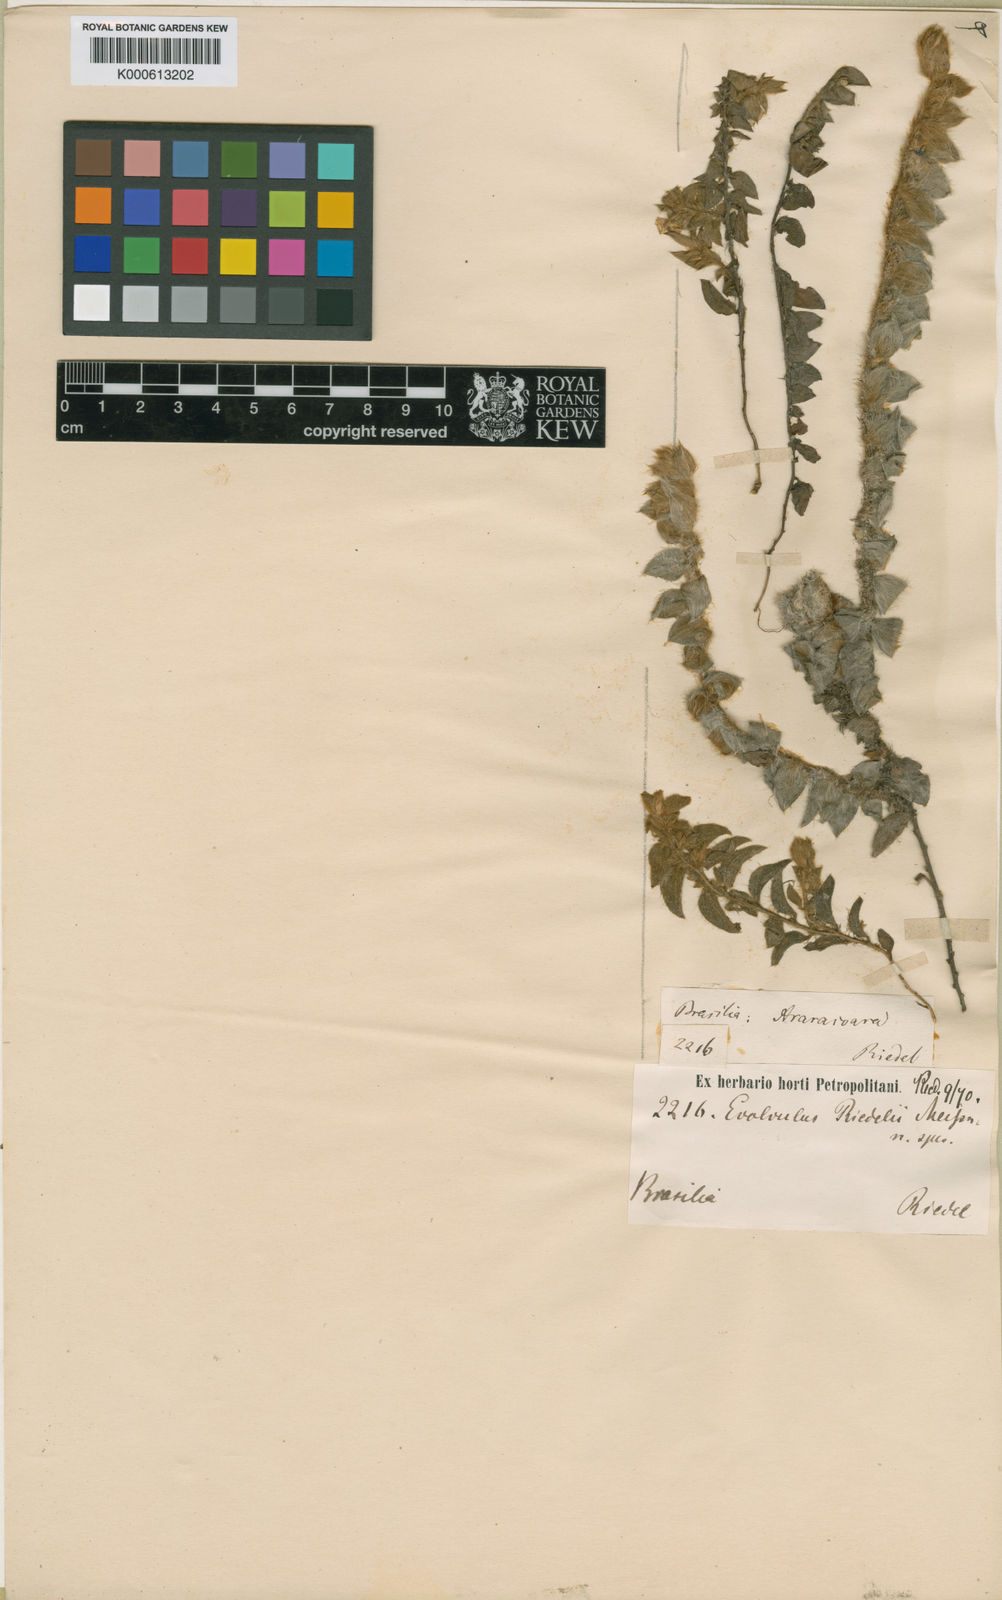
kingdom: Plantae
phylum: Tracheophyta
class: Magnoliopsida
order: Solanales
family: Convolvulaceae
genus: Evolvulus
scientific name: Evolvulus riedelii
